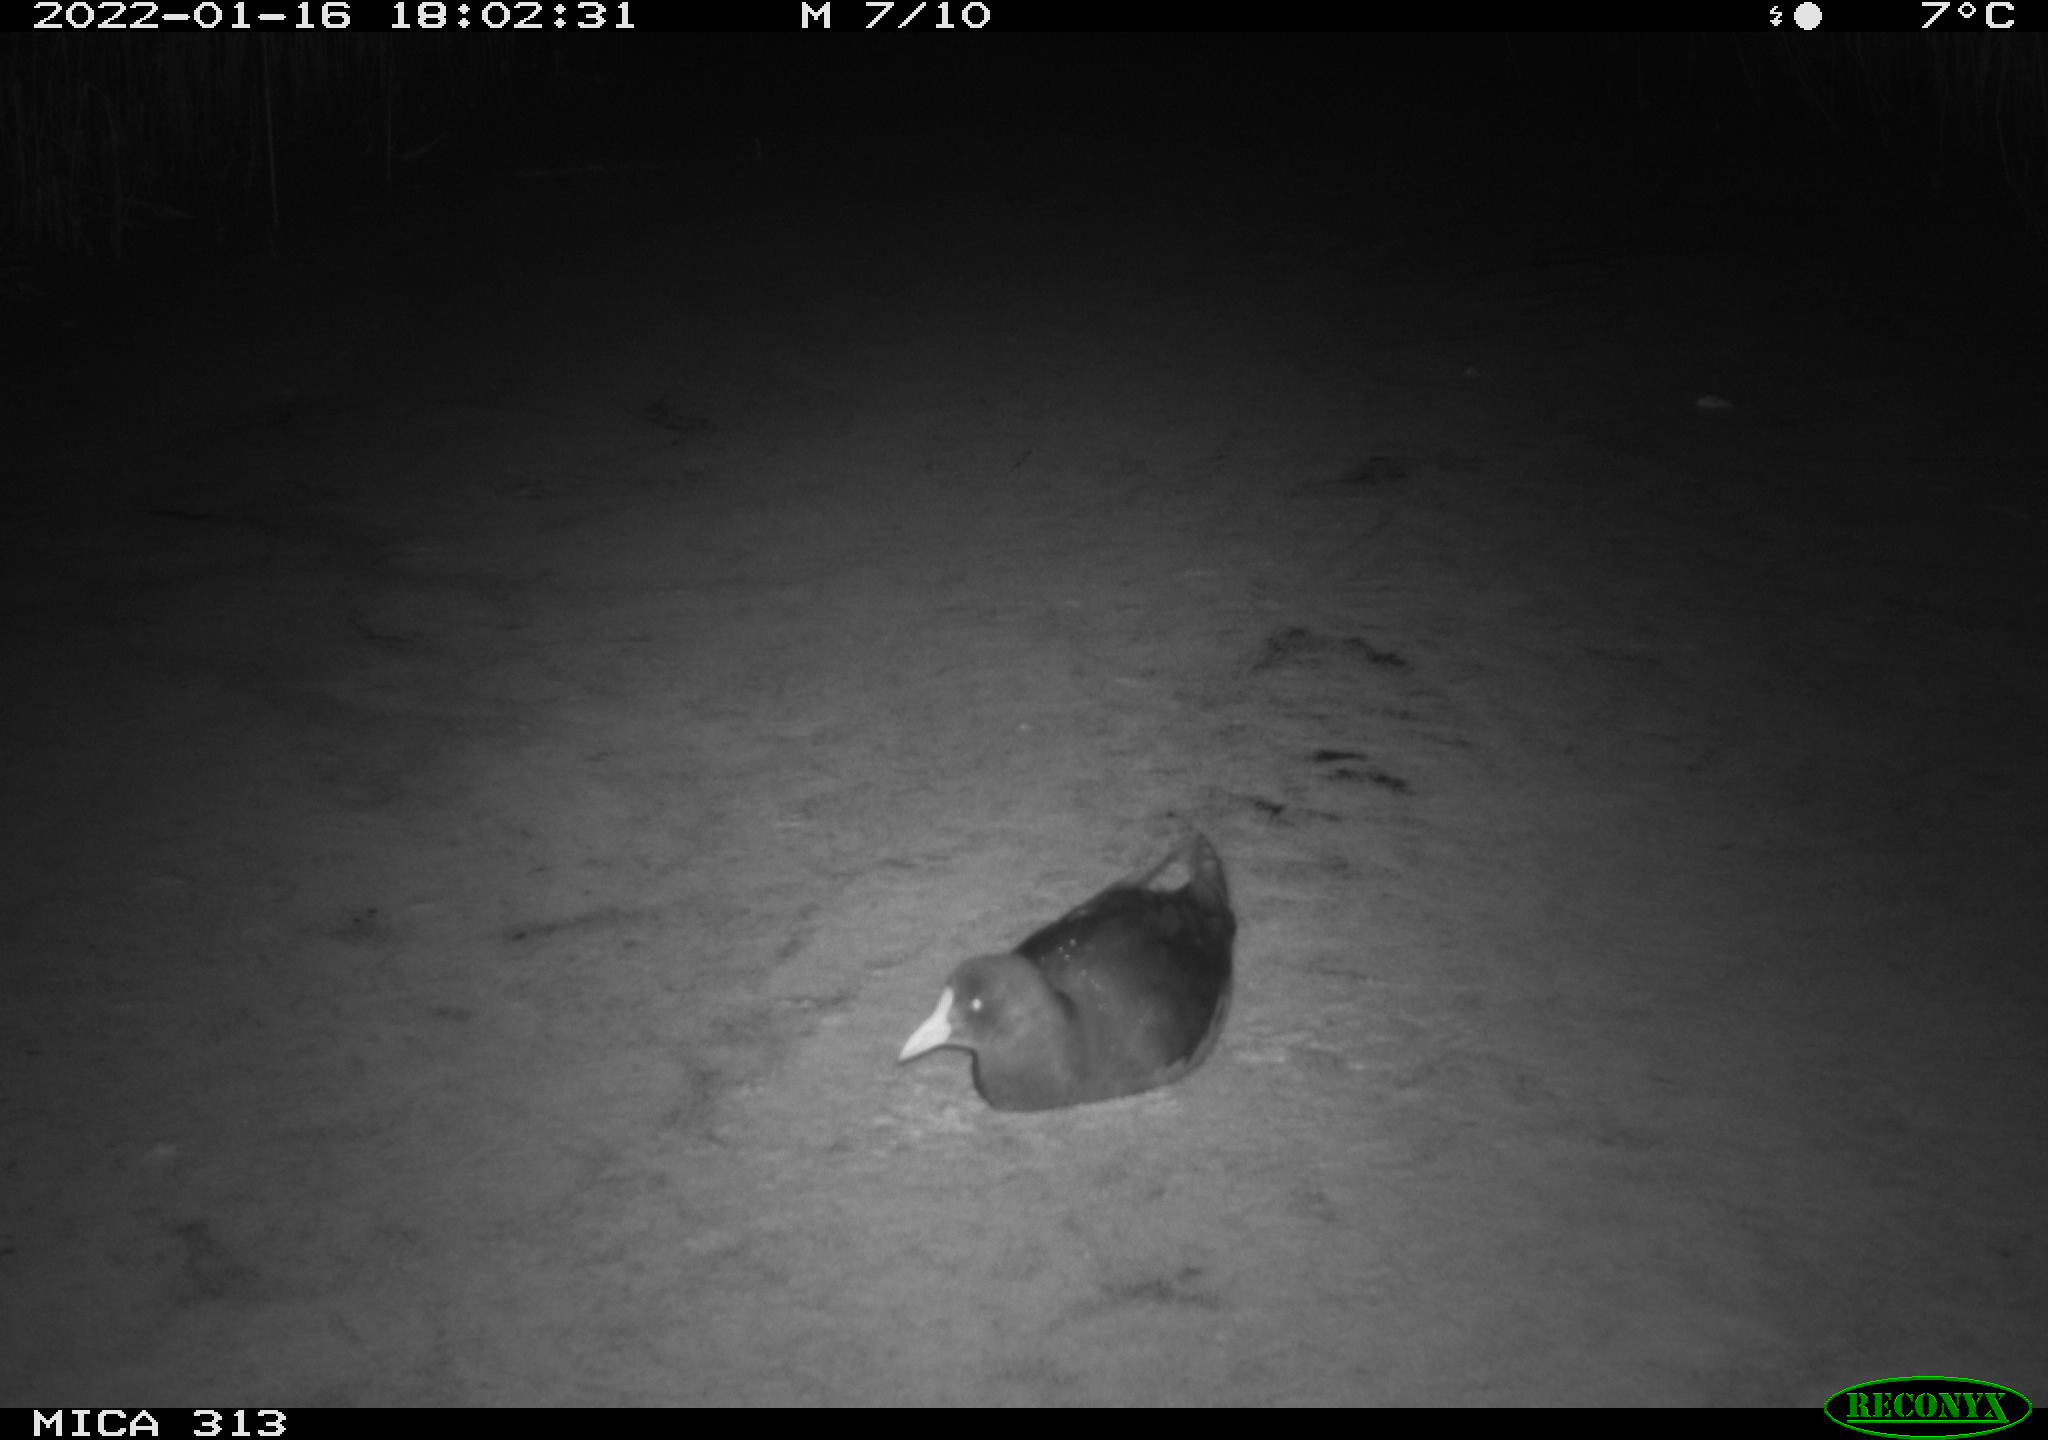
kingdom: Animalia
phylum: Chordata
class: Aves
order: Gruiformes
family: Rallidae
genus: Fulica
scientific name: Fulica atra
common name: Eurasian coot
